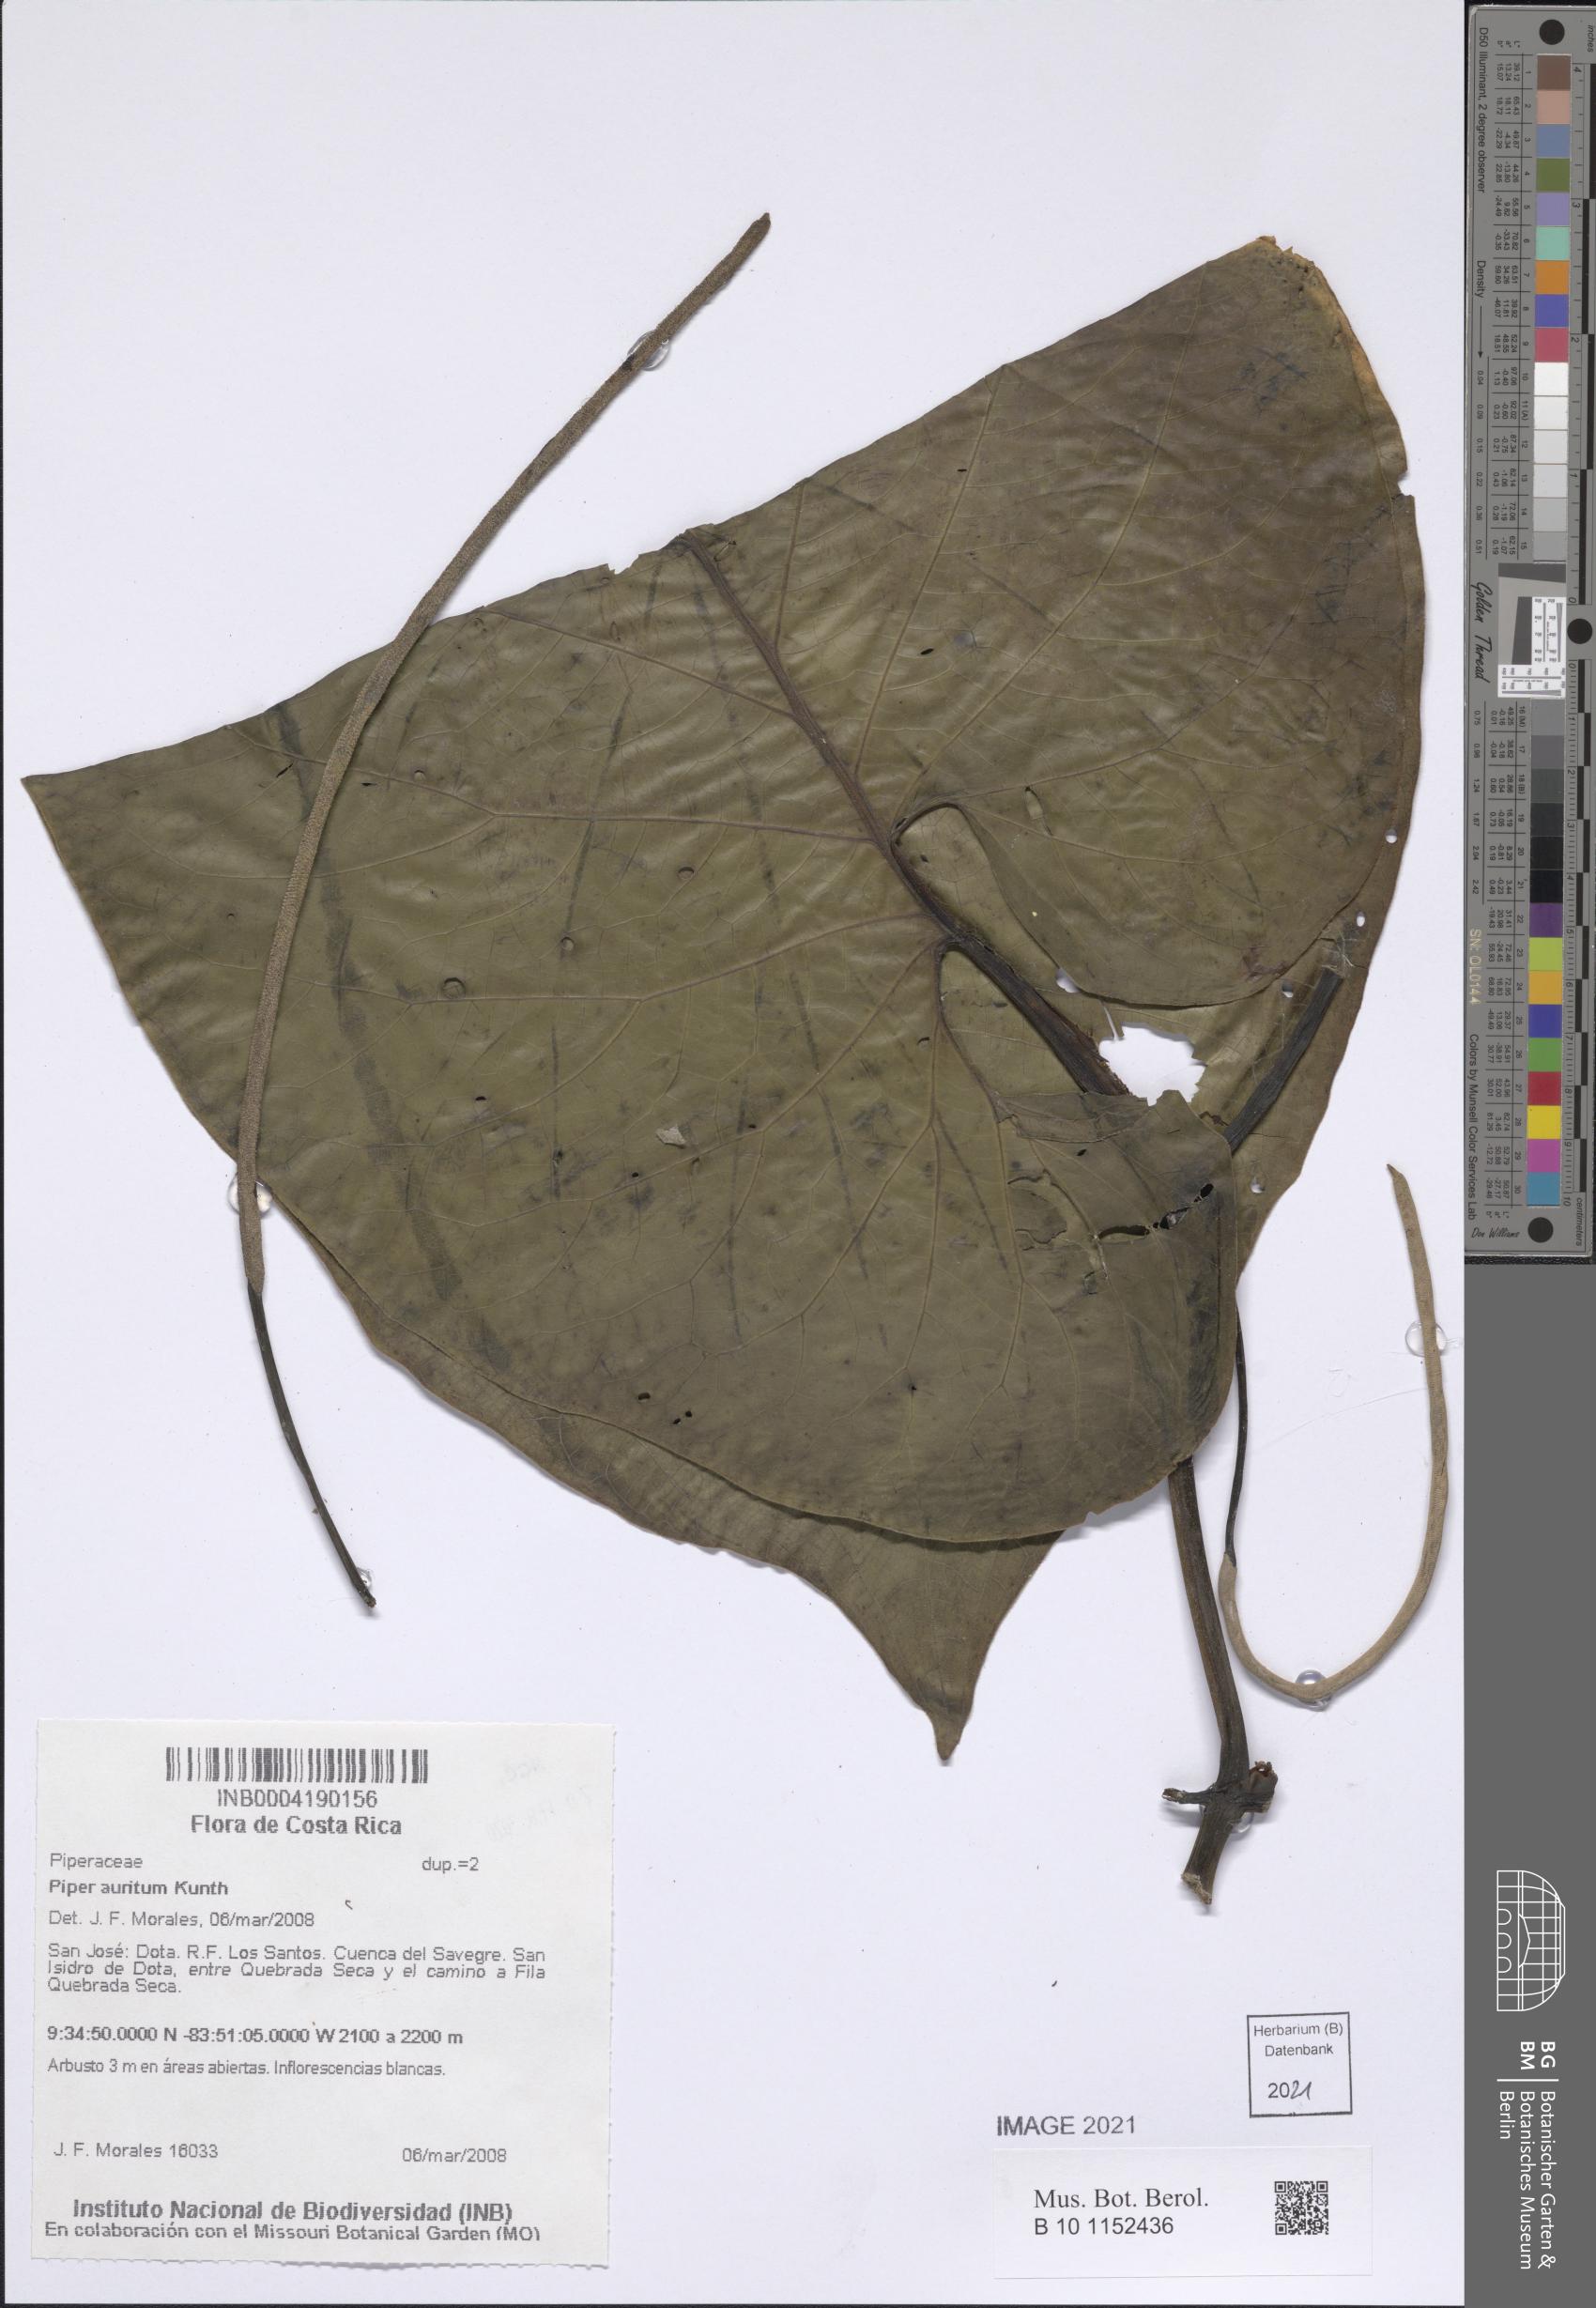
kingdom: Plantae
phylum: Tracheophyta
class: Magnoliopsida
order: Piperales
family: Piperaceae
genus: Piper
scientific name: Piper auritum
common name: Vera cruz pepper
